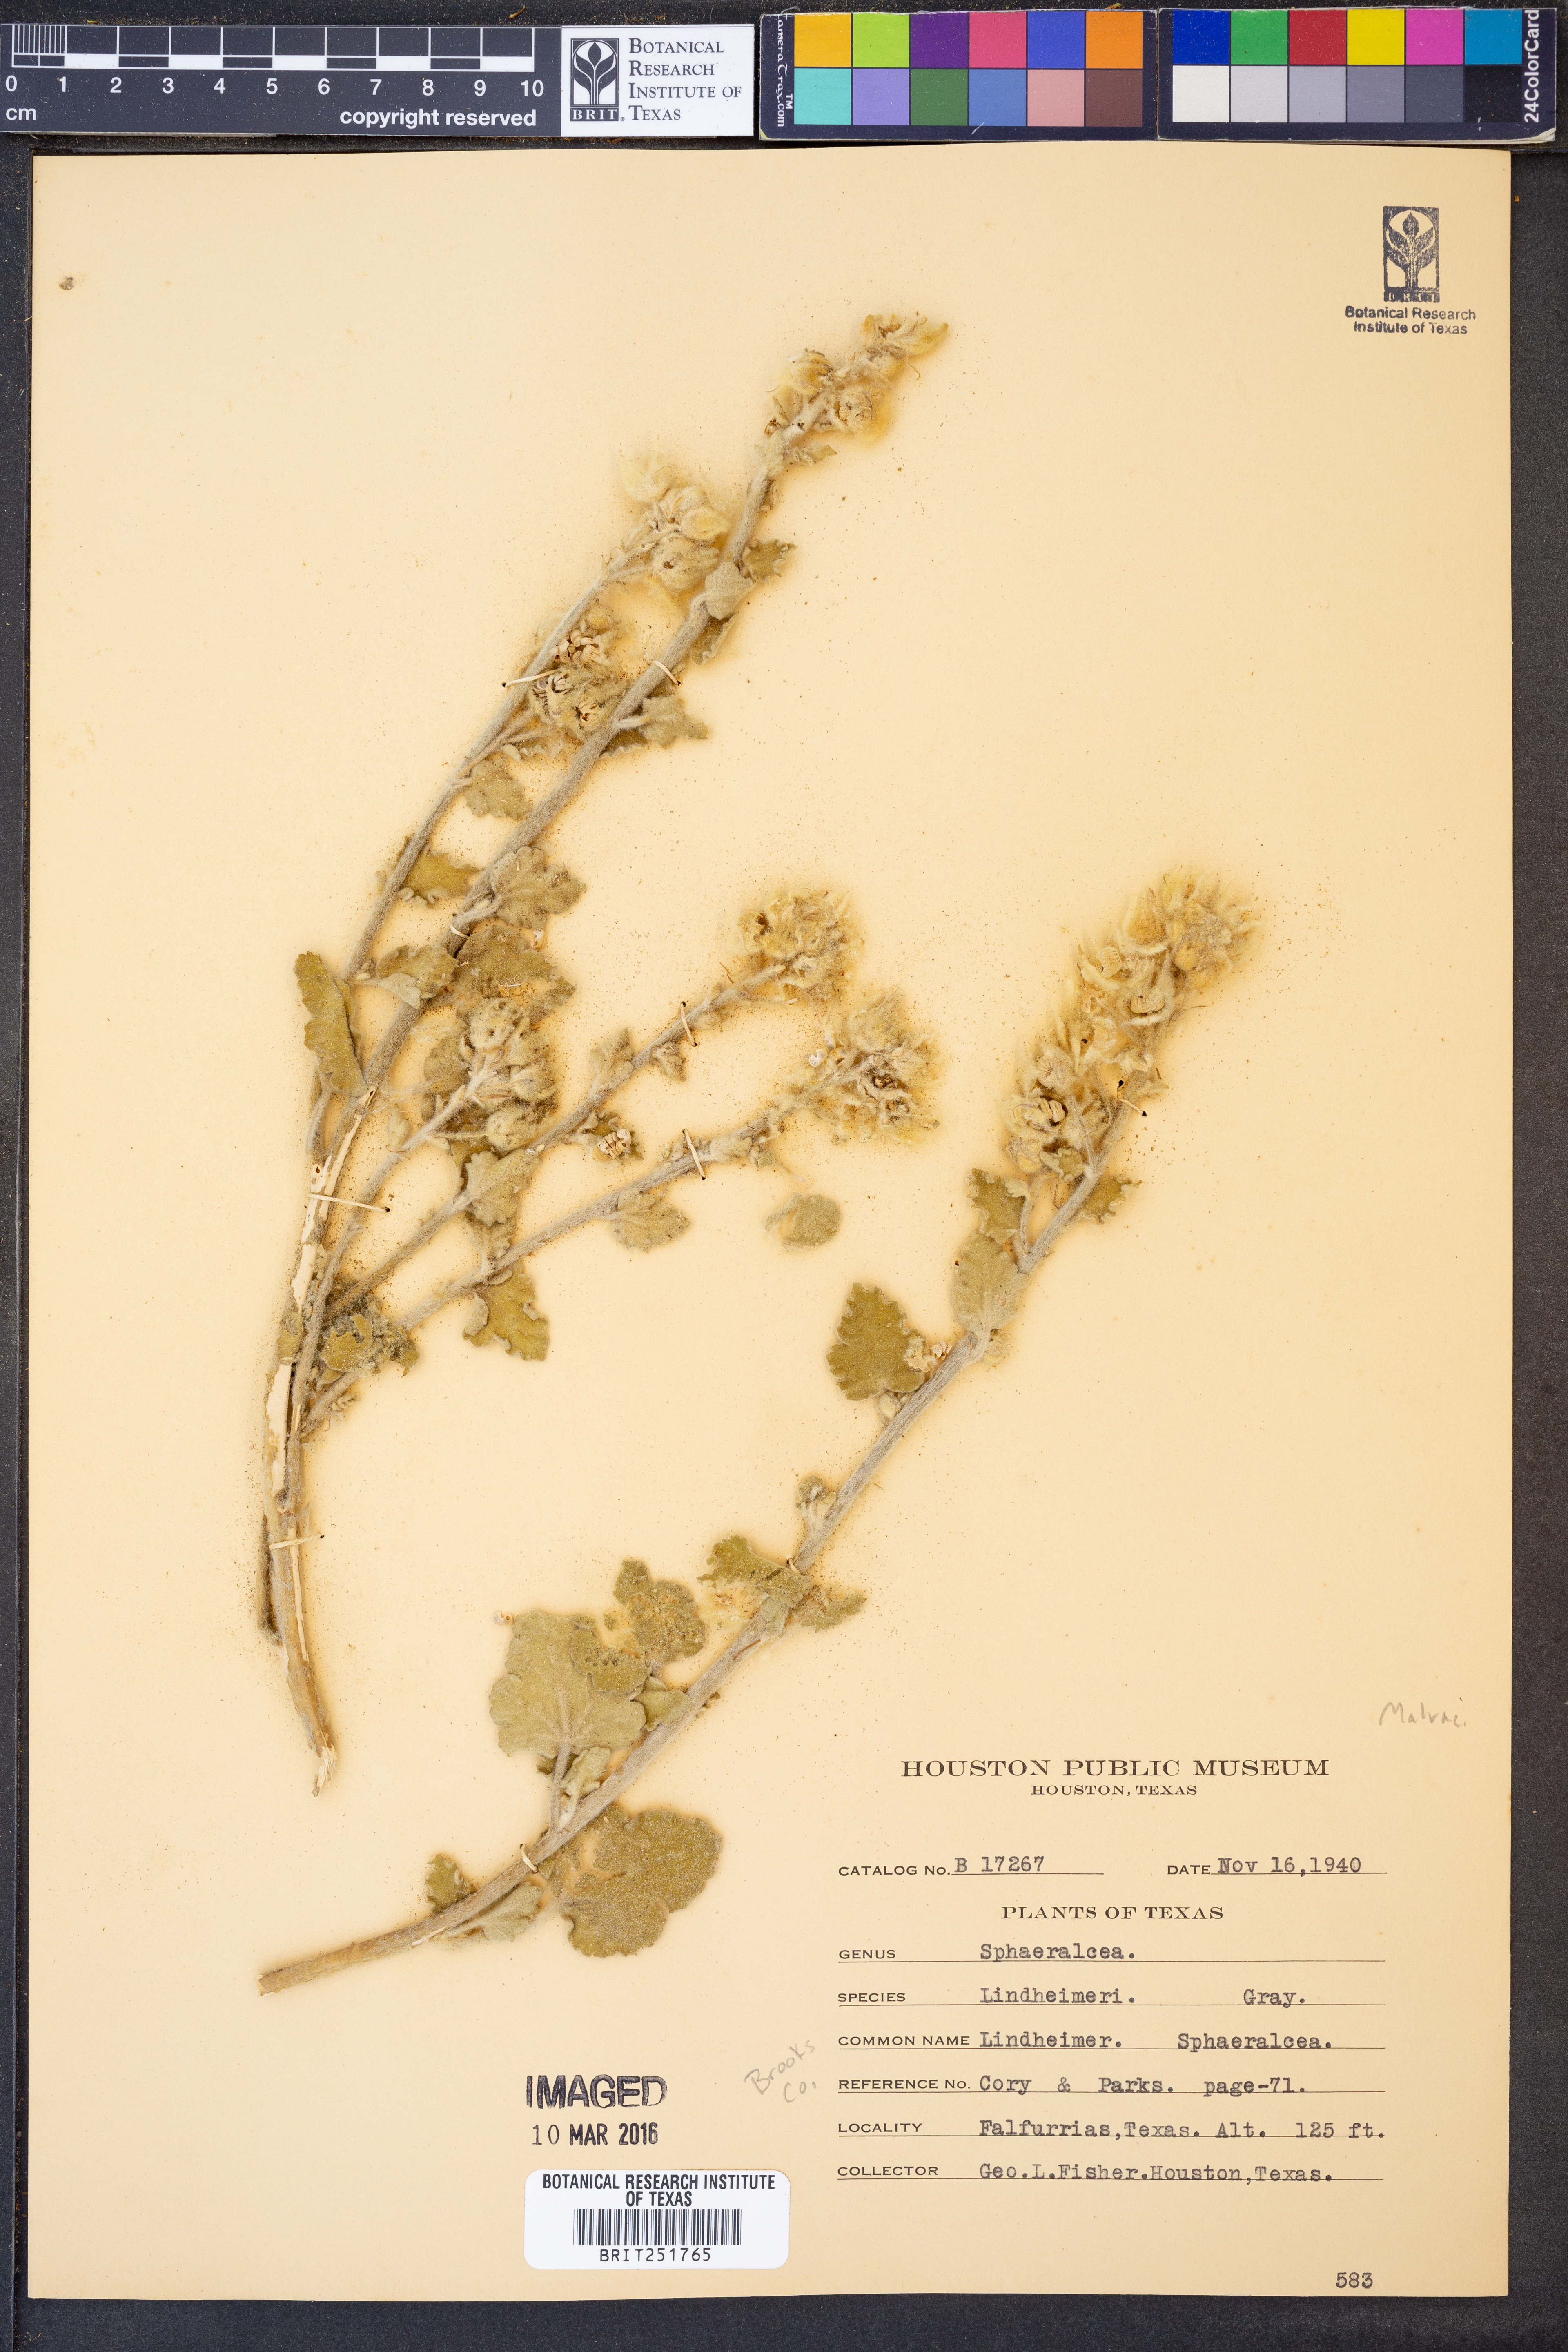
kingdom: Plantae
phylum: Tracheophyta
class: Magnoliopsida
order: Malvales
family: Malvaceae
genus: Sphaeralcea
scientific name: Sphaeralcea lindheimeri
